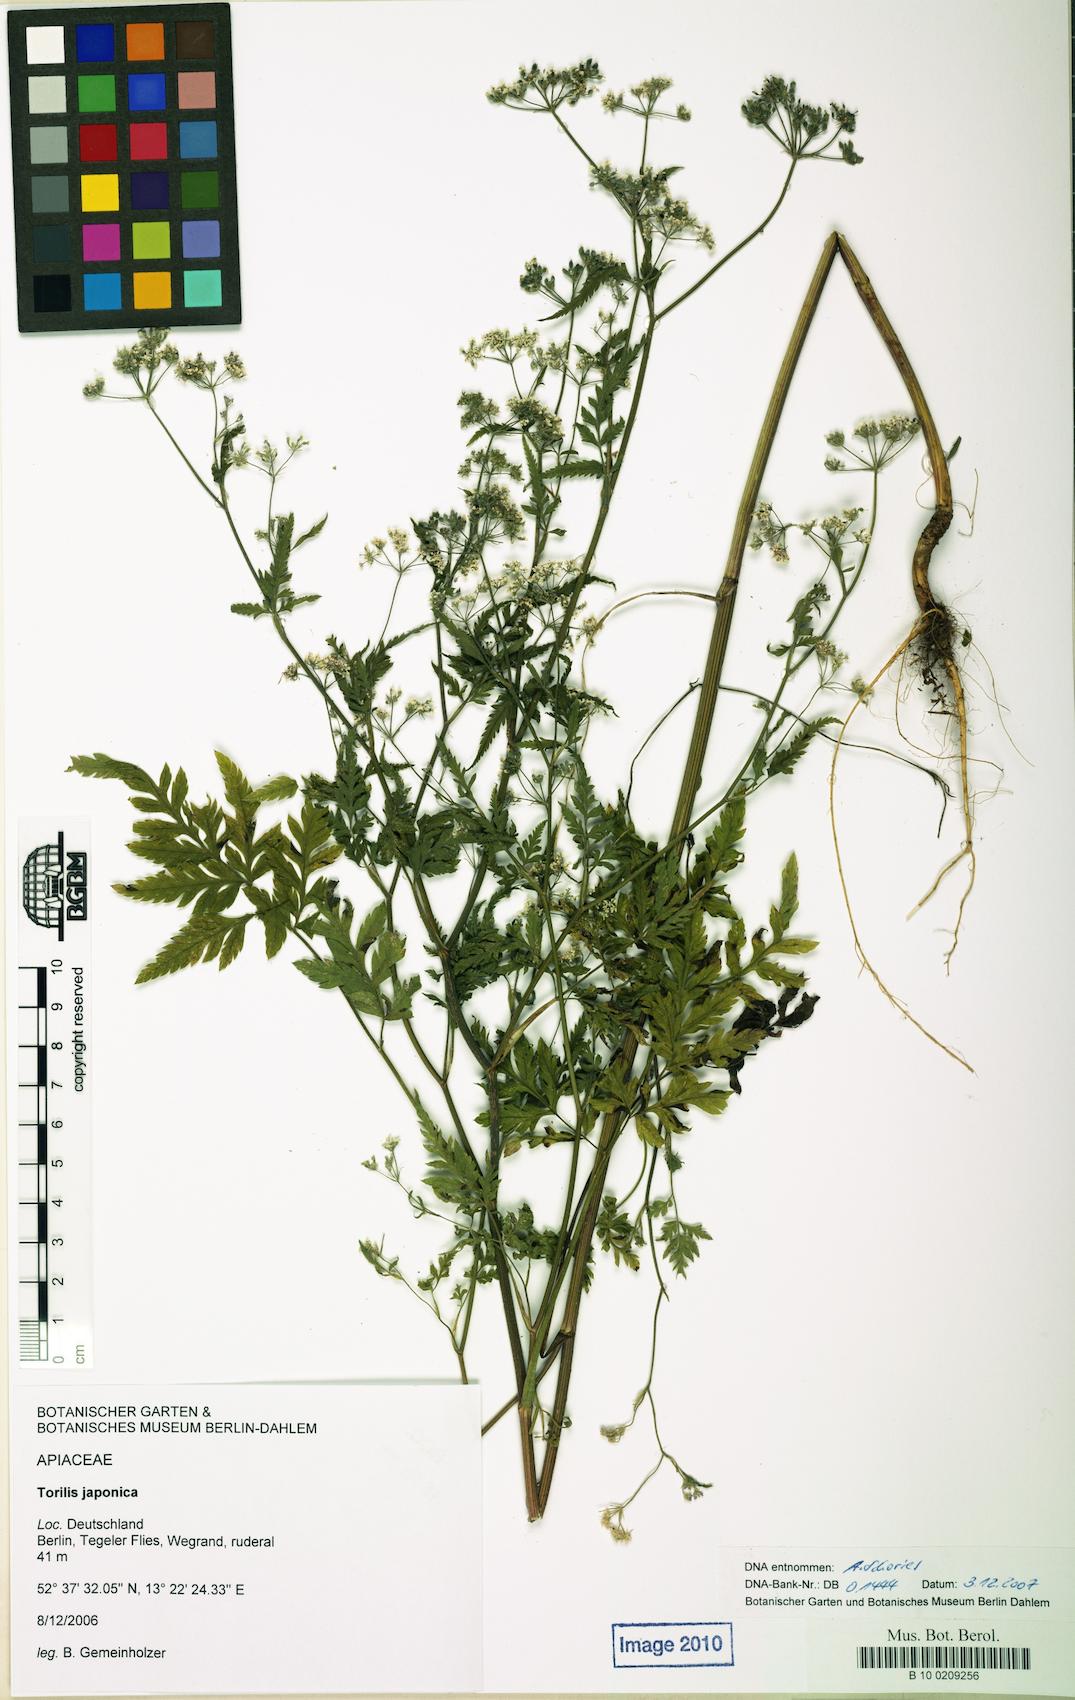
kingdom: Plantae
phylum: Tracheophyta
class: Magnoliopsida
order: Apiales
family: Apiaceae
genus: Torilis
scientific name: Torilis japonica
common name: Upright hedge-parsley
